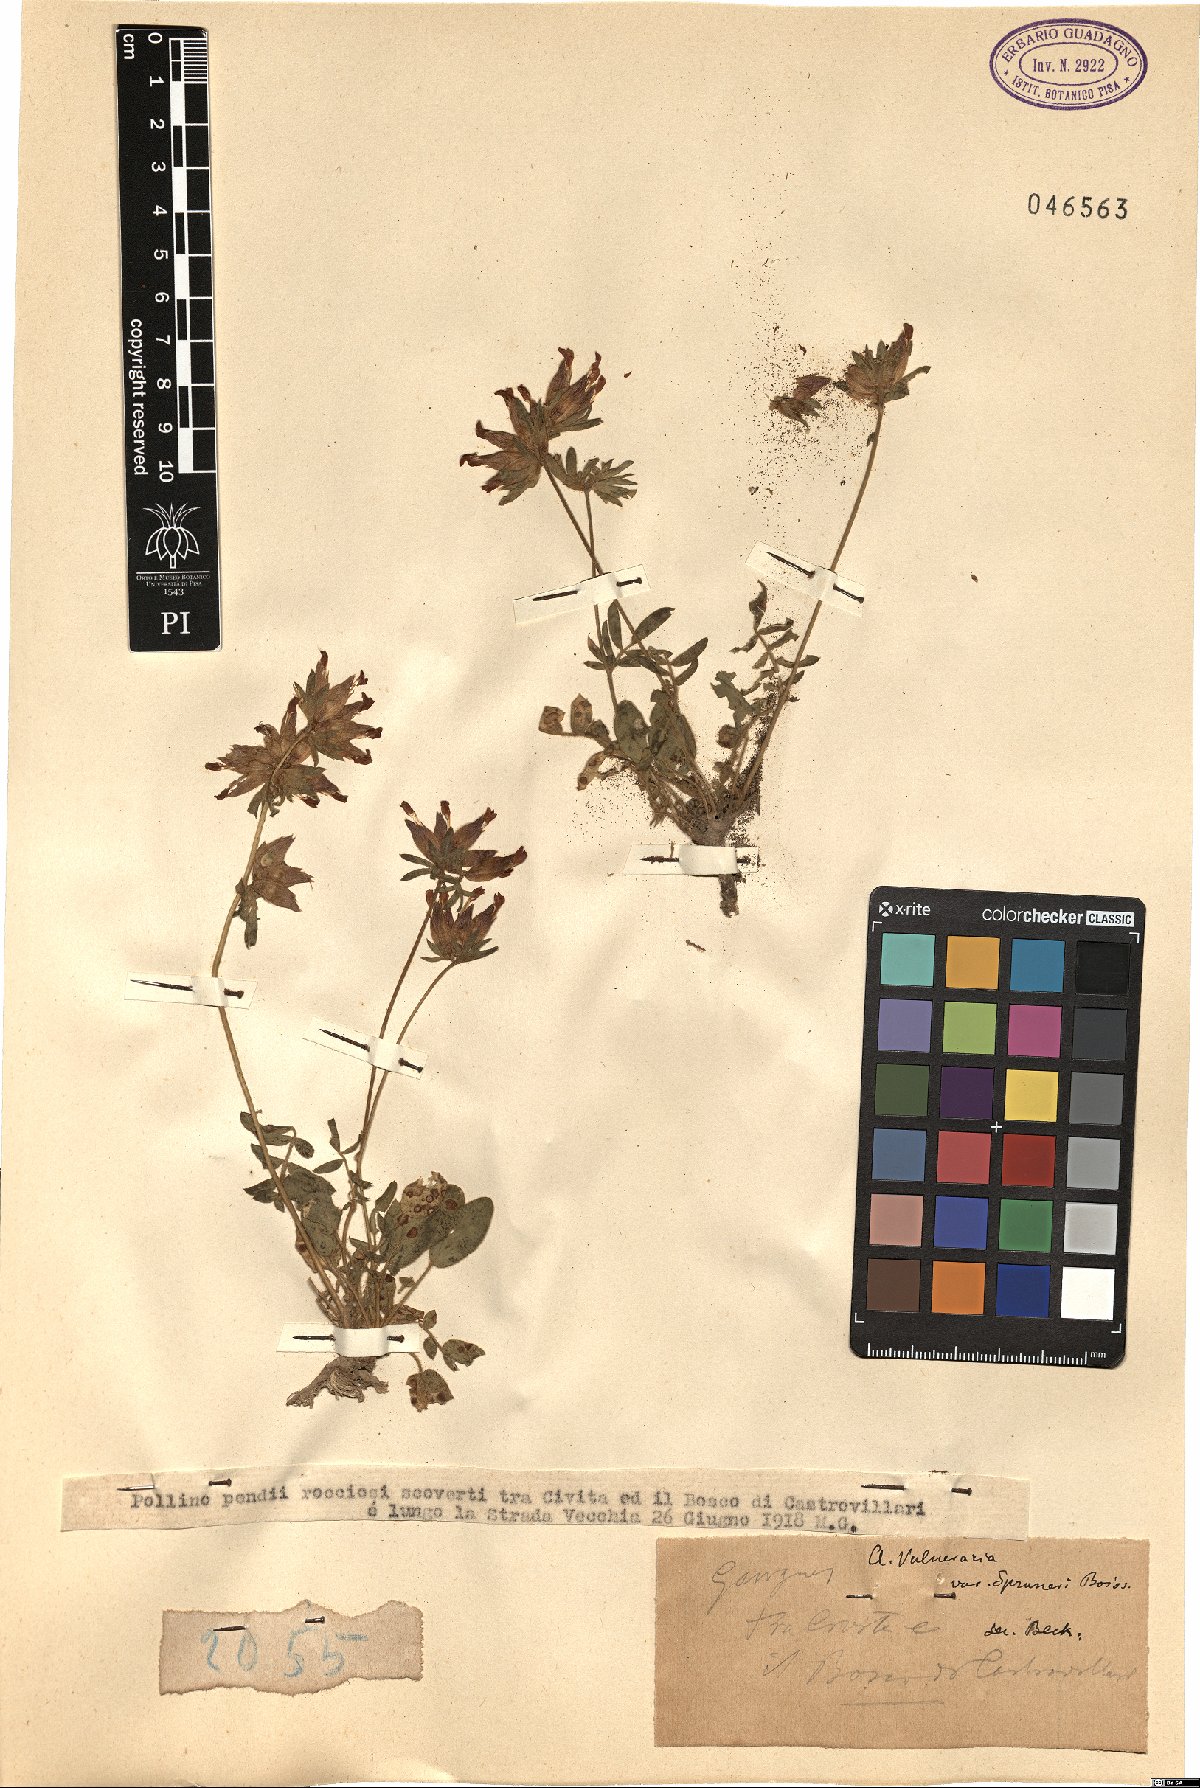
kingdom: Plantae
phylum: Tracheophyta
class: Magnoliopsida
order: Fabales
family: Fabaceae
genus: Anthyllis
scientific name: Anthyllis vulneraria
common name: Kidney vetch
